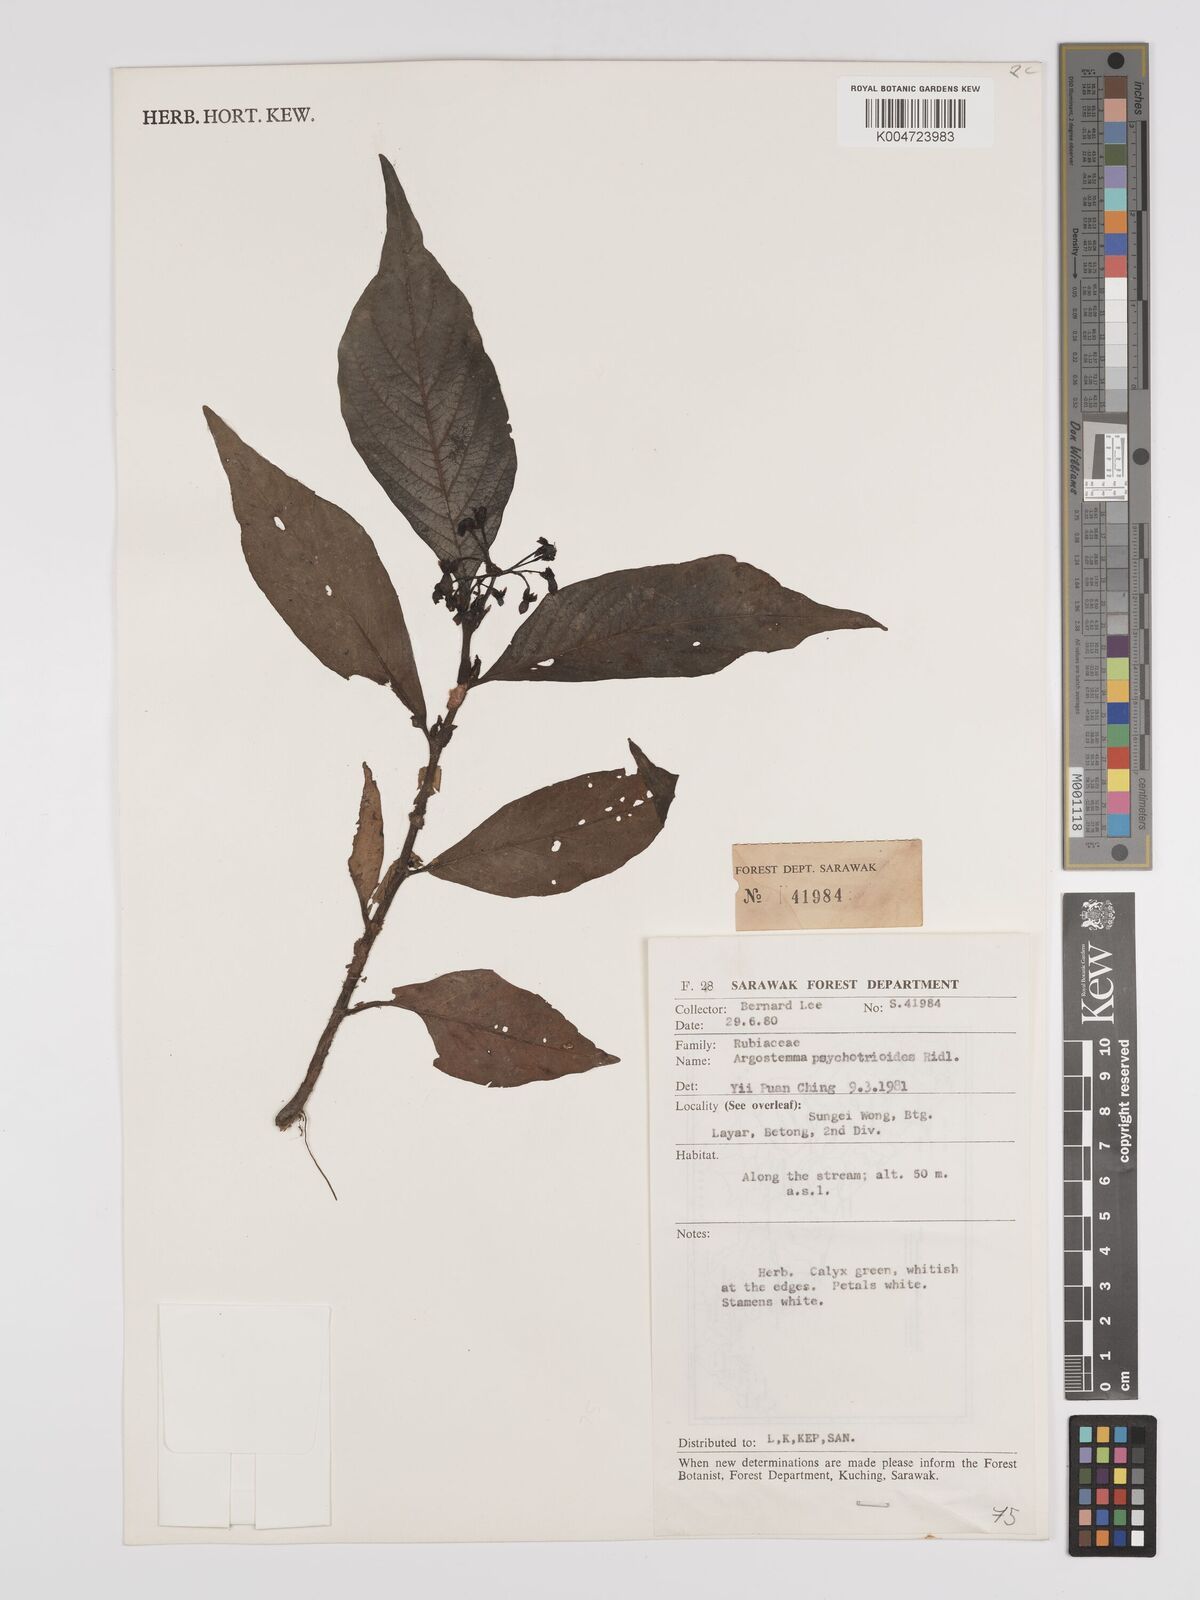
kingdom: Plantae
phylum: Tracheophyta
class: Magnoliopsida
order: Gentianales
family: Rubiaceae
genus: Argostemma
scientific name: Argostemma psychotrioides
